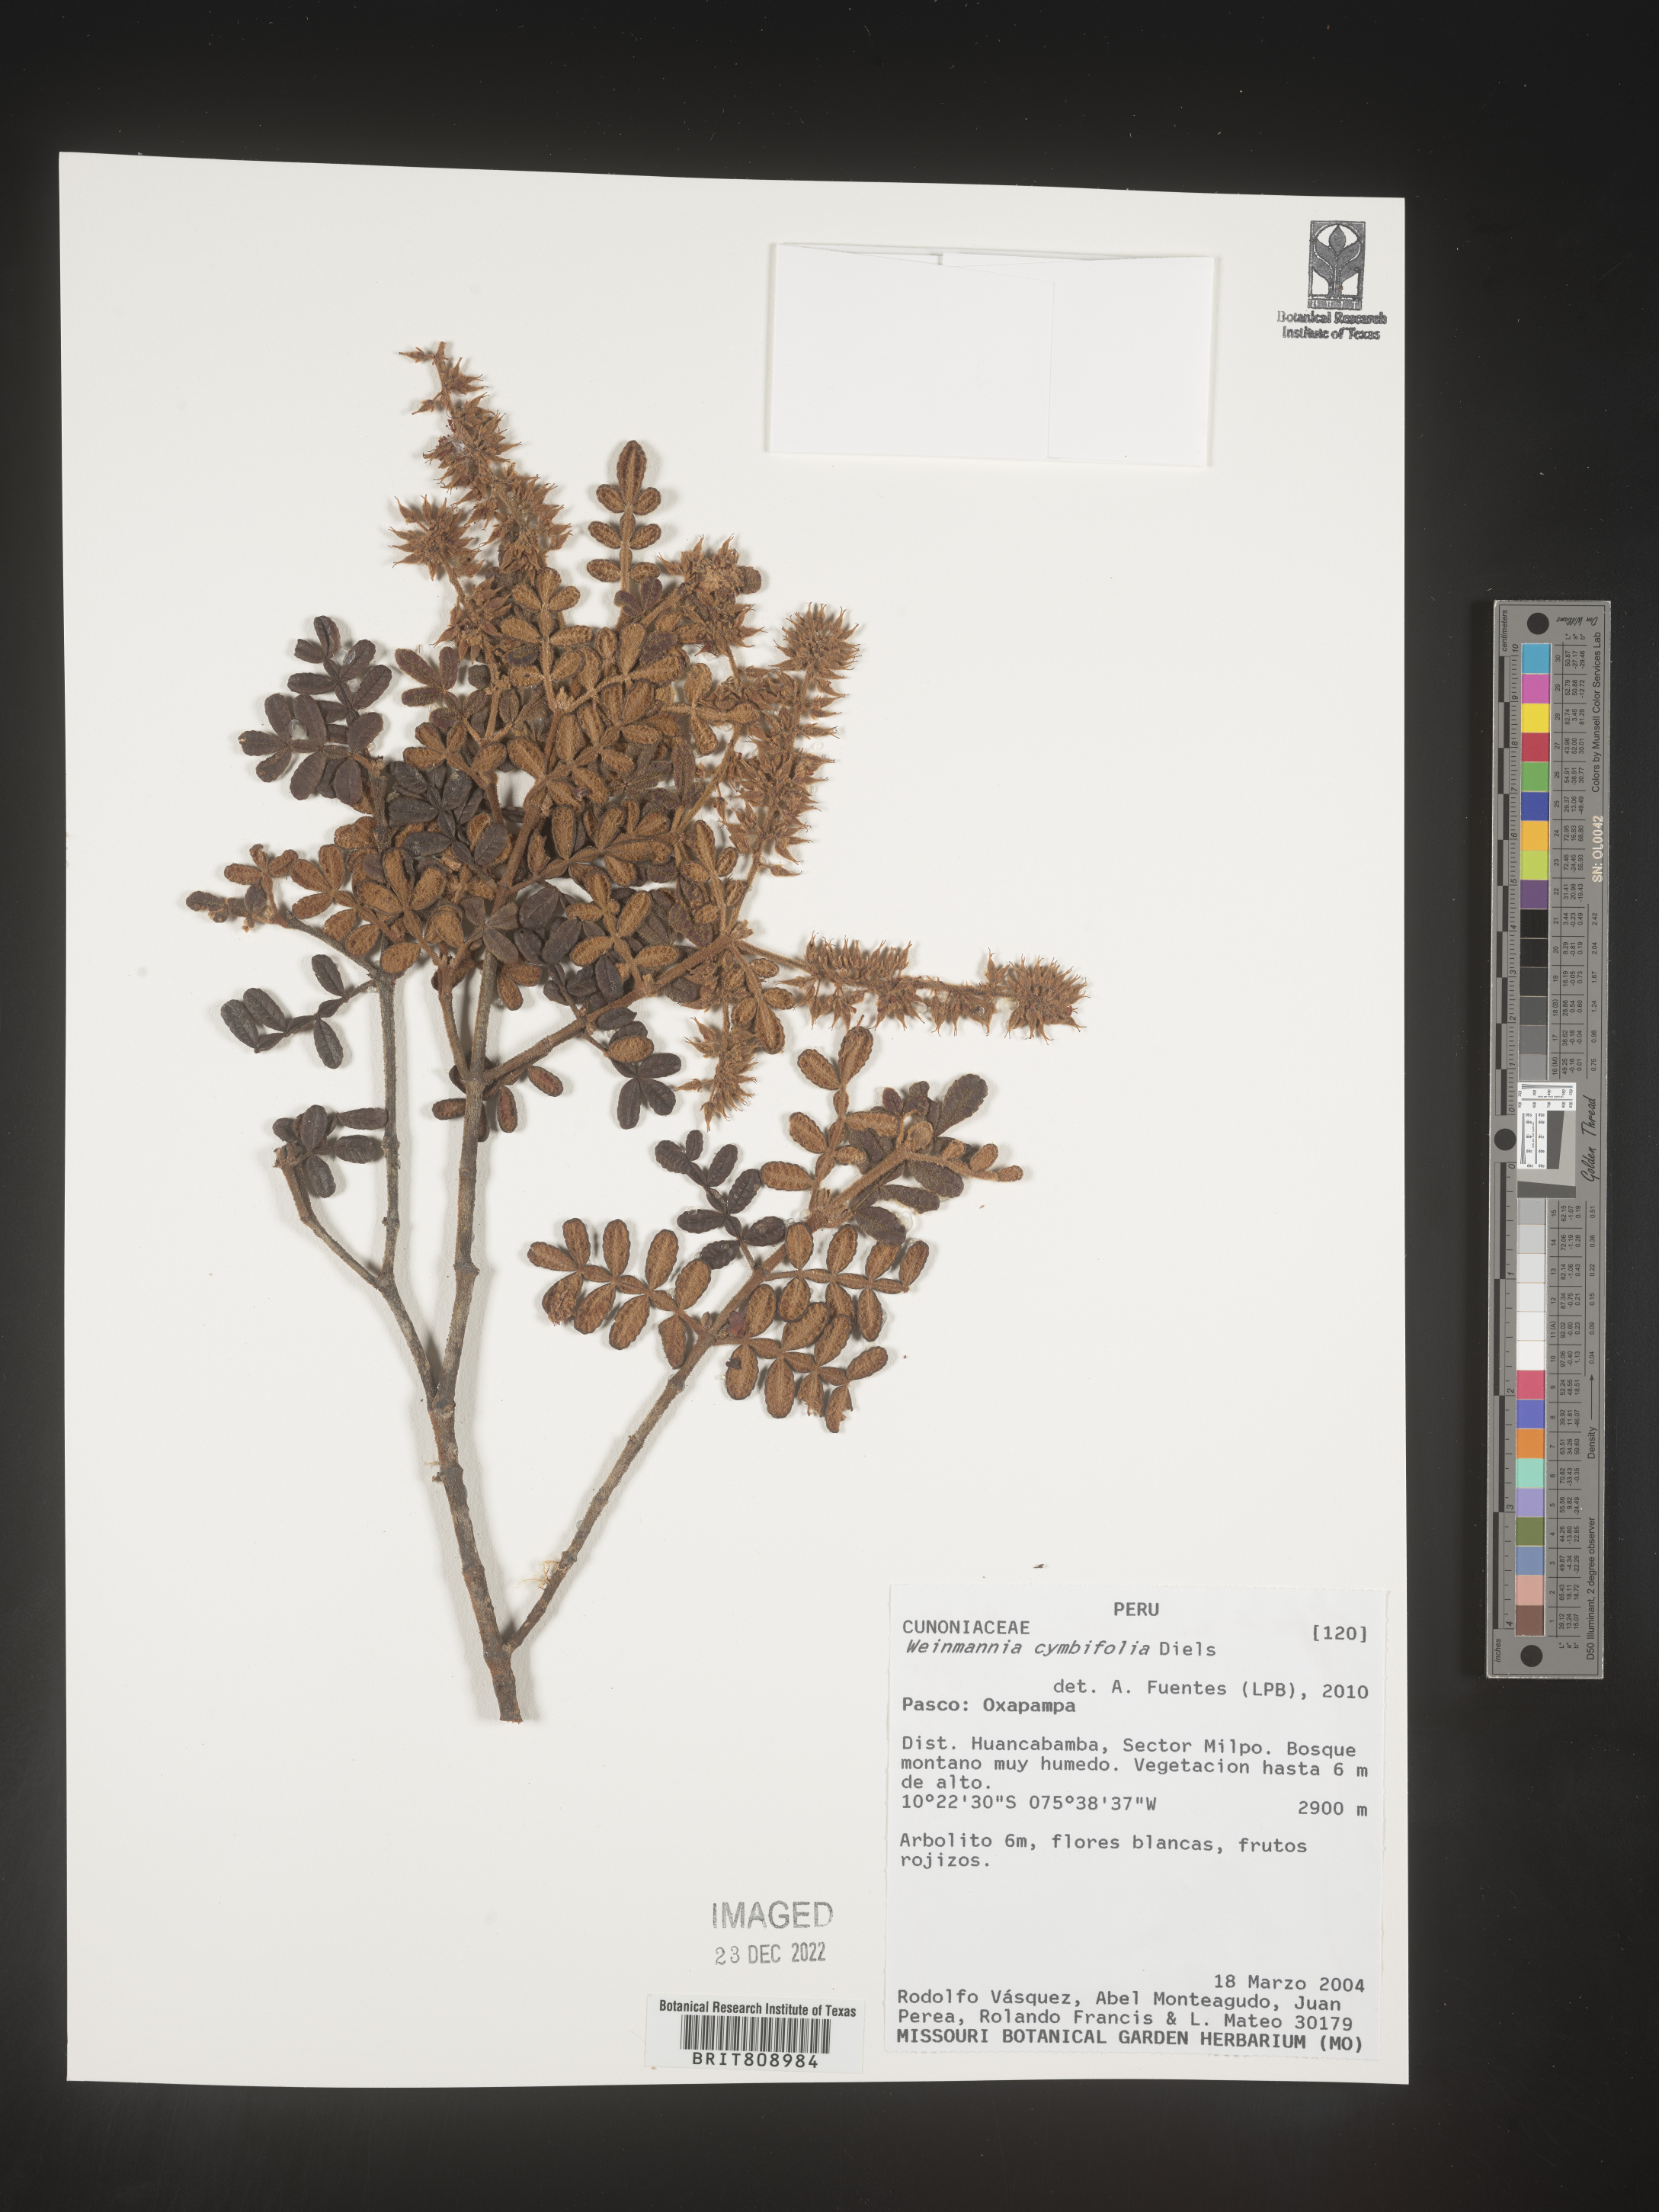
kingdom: Plantae
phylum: Tracheophyta
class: Magnoliopsida
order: Oxalidales
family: Cunoniaceae
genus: Weinmannia
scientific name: Weinmannia
